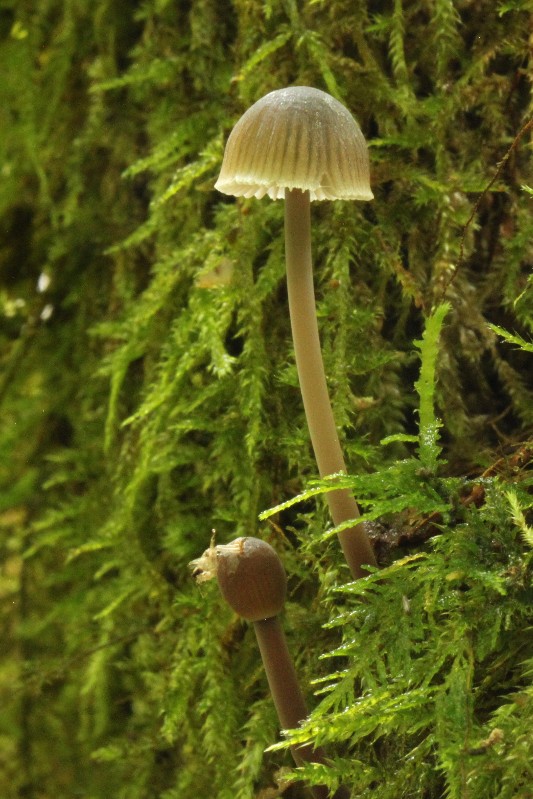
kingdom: Fungi
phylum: Basidiomycota
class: Agaricomycetes
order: Agaricales
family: Mycenaceae
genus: Mycena
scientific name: Mycena leptocephala
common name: klor-huesvamp
